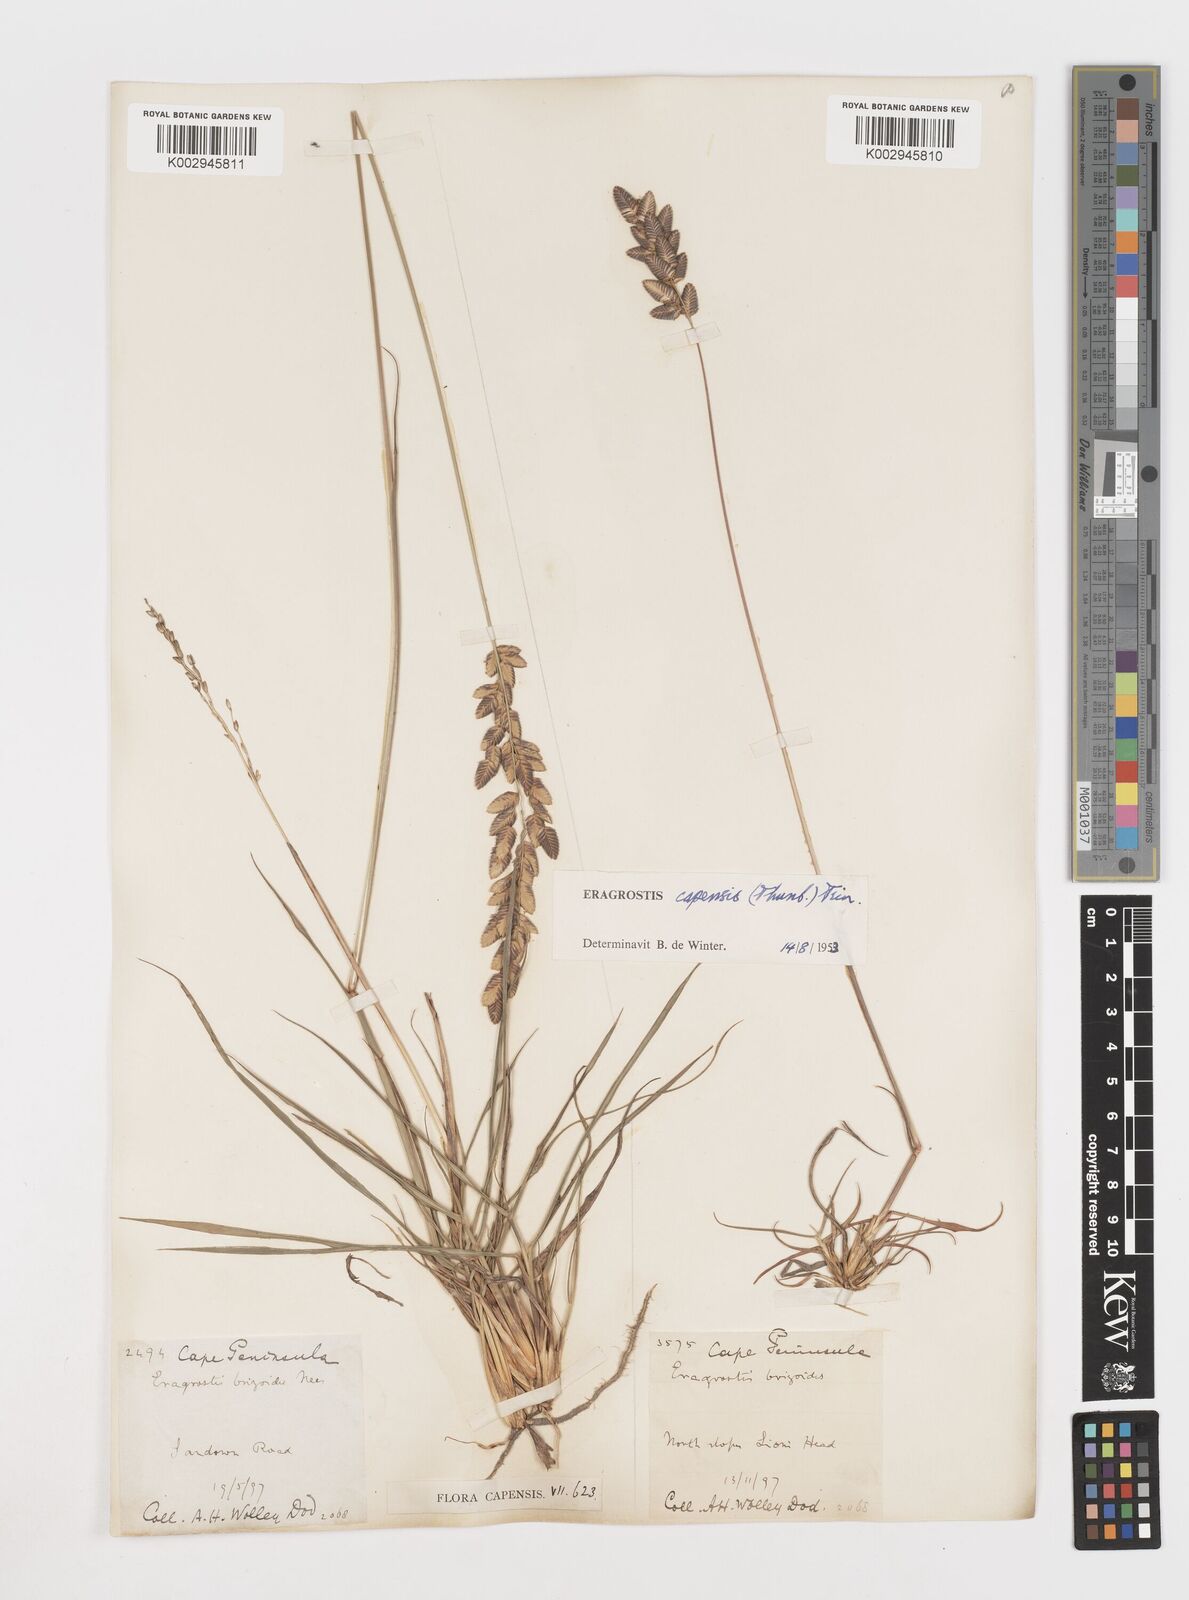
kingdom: Plantae
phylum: Tracheophyta
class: Liliopsida
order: Poales
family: Poaceae
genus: Eragrostis
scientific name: Eragrostis capensis
